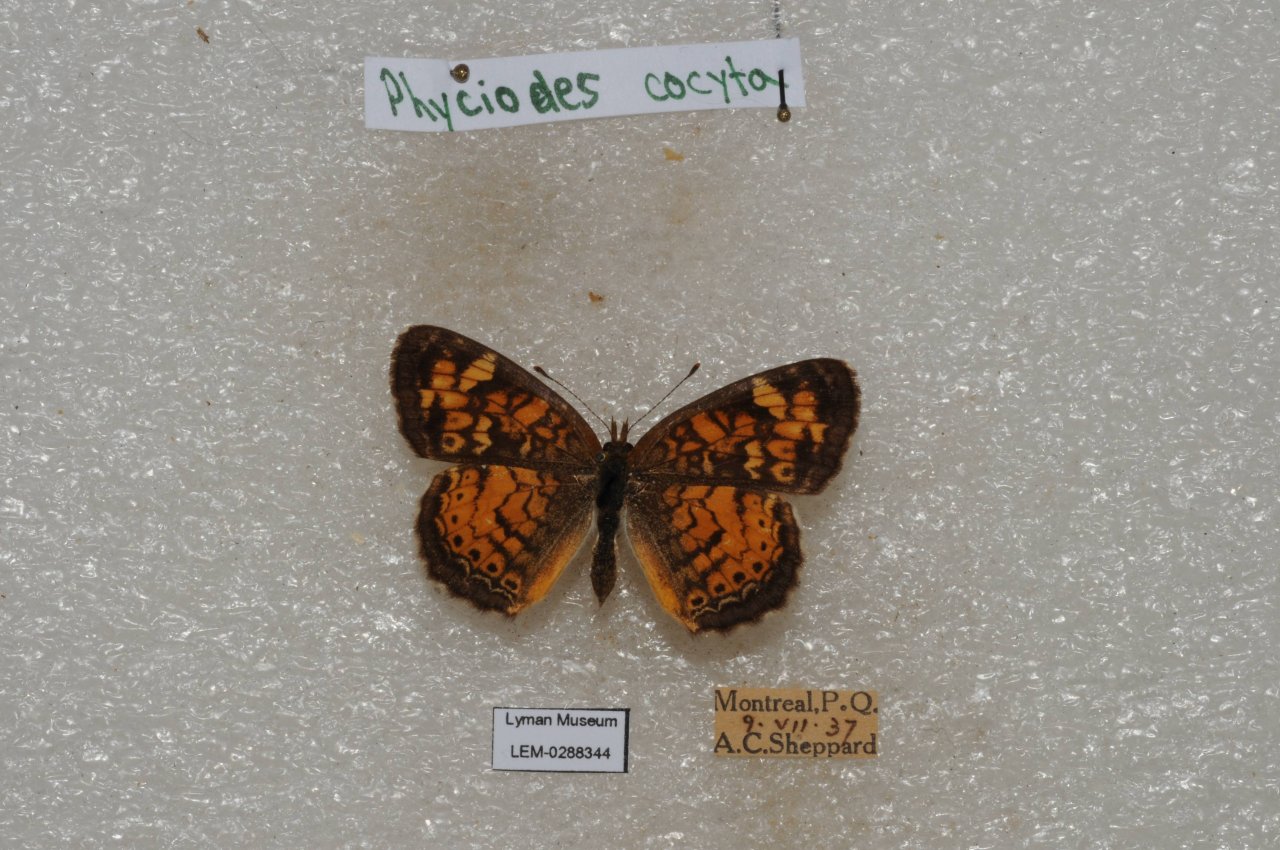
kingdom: Animalia
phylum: Arthropoda
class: Insecta
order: Lepidoptera
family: Nymphalidae
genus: Phyciodes
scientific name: Phyciodes tharos
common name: Northern Crescent
